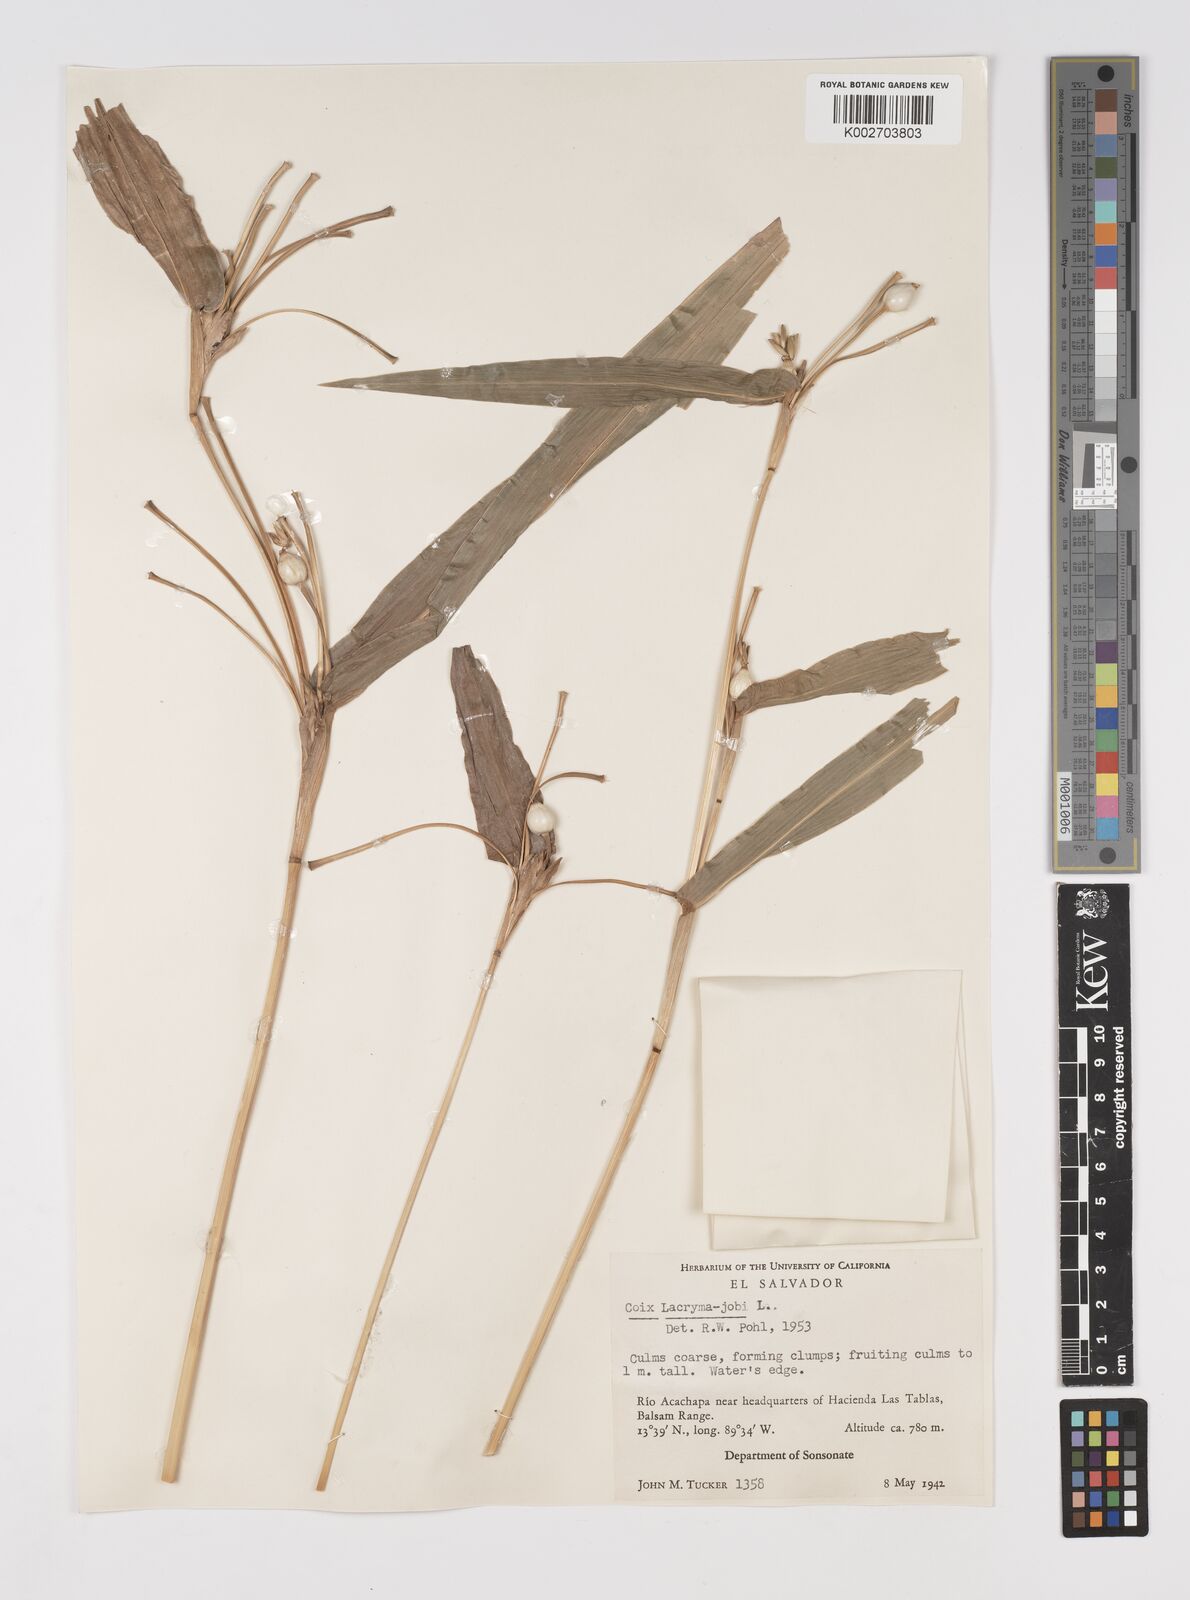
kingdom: Plantae
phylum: Tracheophyta
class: Liliopsida
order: Poales
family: Poaceae
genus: Coix
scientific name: Coix lacryma-jobi
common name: Job's tears
